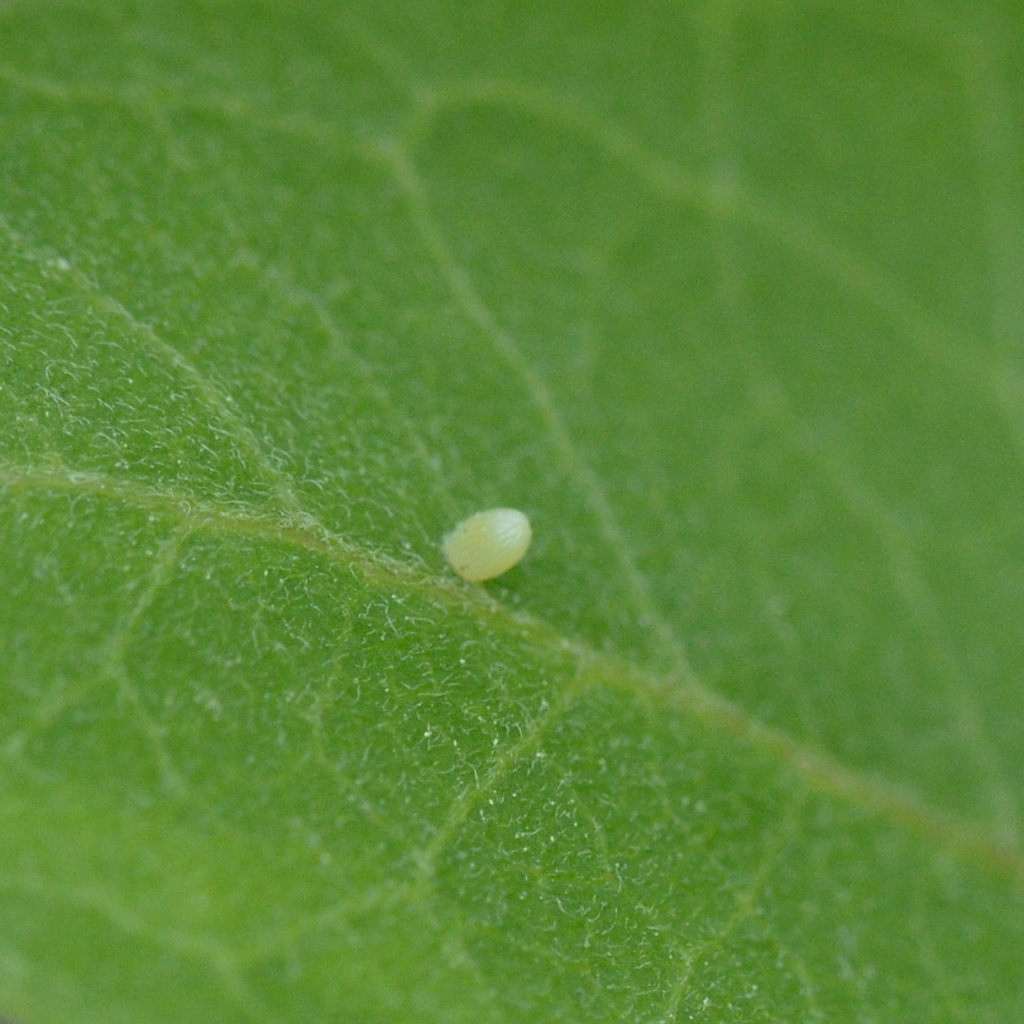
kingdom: Animalia
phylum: Arthropoda
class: Insecta
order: Lepidoptera
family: Nymphalidae
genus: Danaus
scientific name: Danaus plexippus
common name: Monarch
